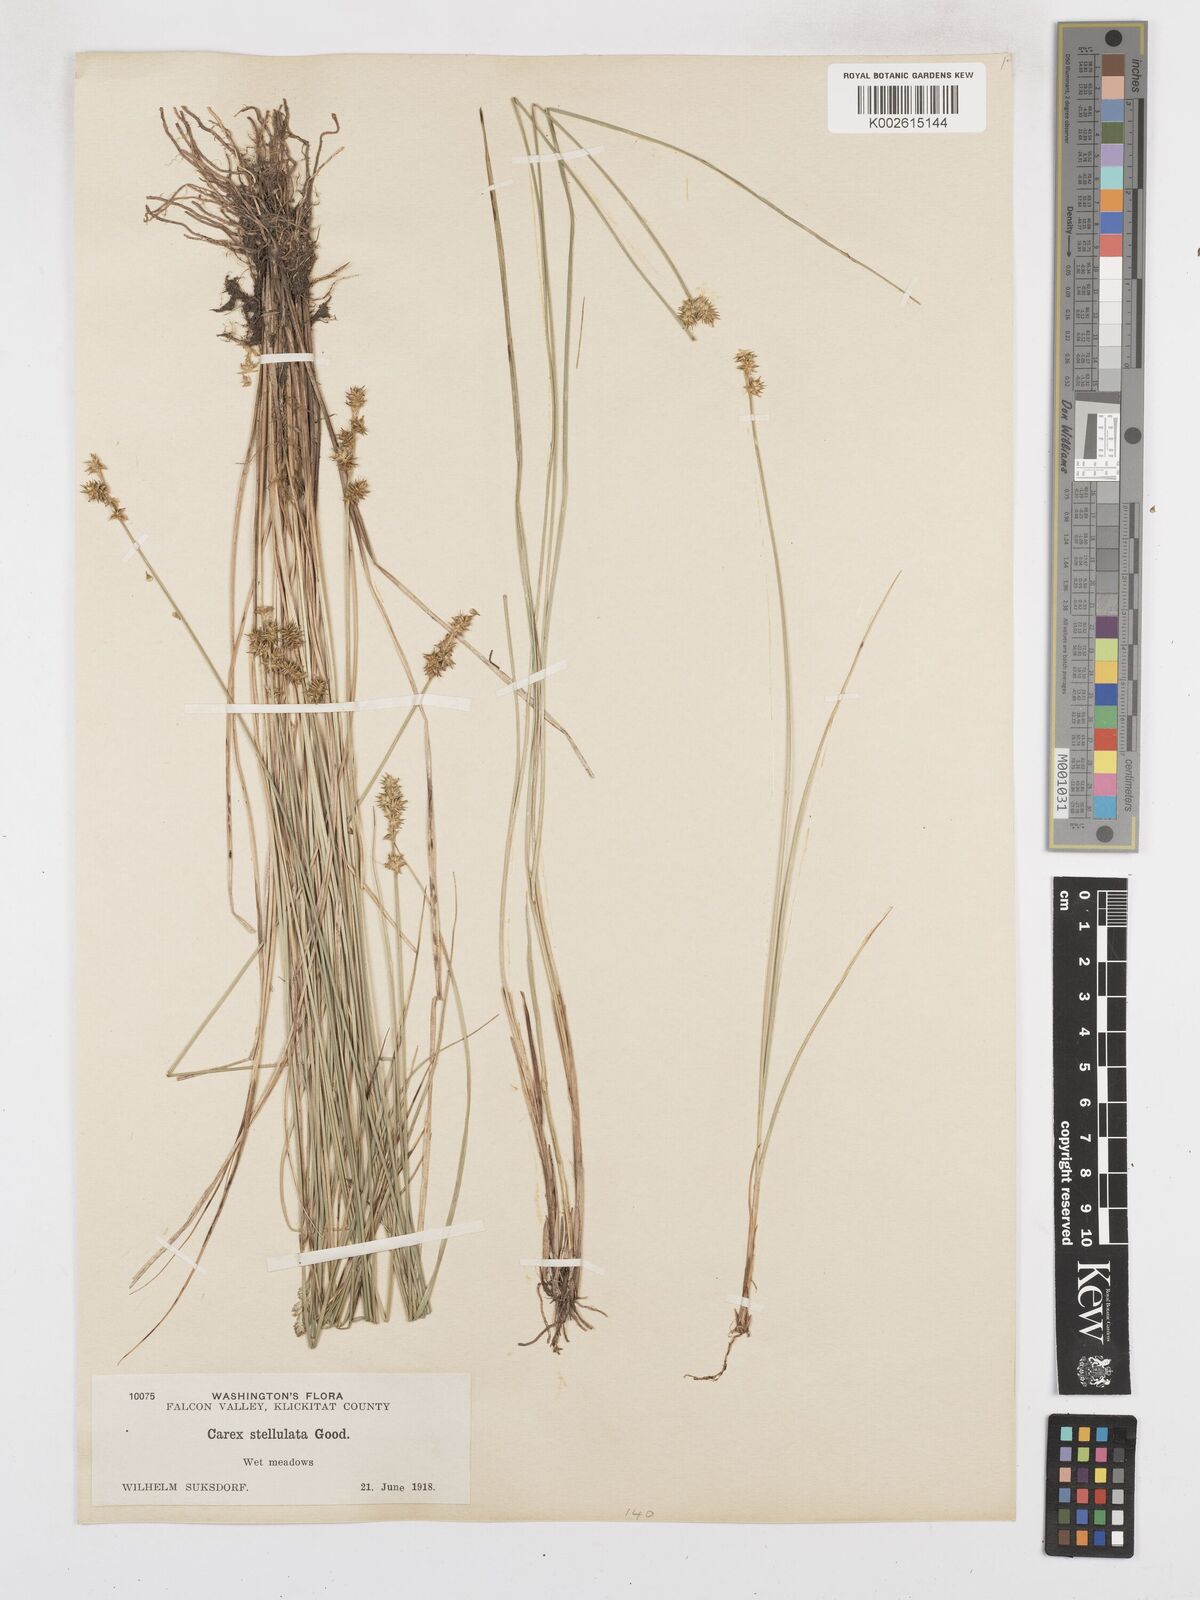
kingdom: Plantae
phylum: Tracheophyta
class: Liliopsida
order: Poales
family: Cyperaceae
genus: Carex
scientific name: Carex echinata
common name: Star sedge
